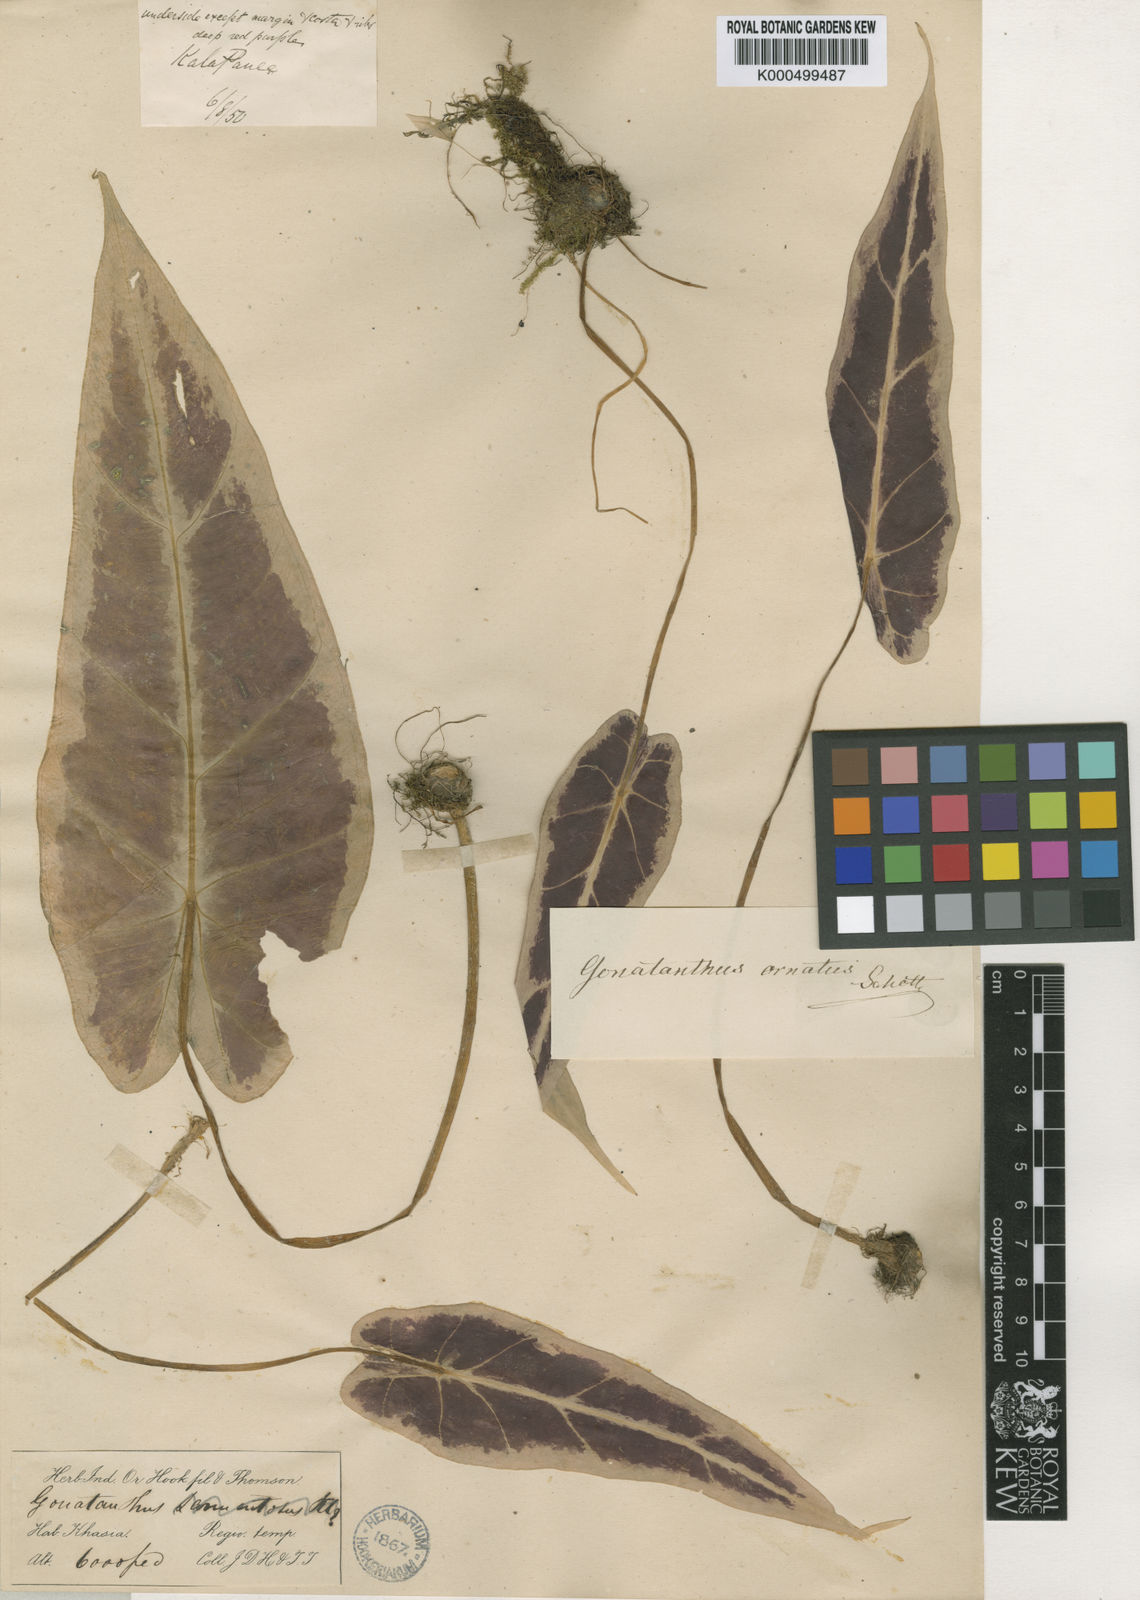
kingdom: Plantae
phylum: Tracheophyta
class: Liliopsida
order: Alismatales
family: Araceae
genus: Remusatia
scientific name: Remusatia hookeriana
